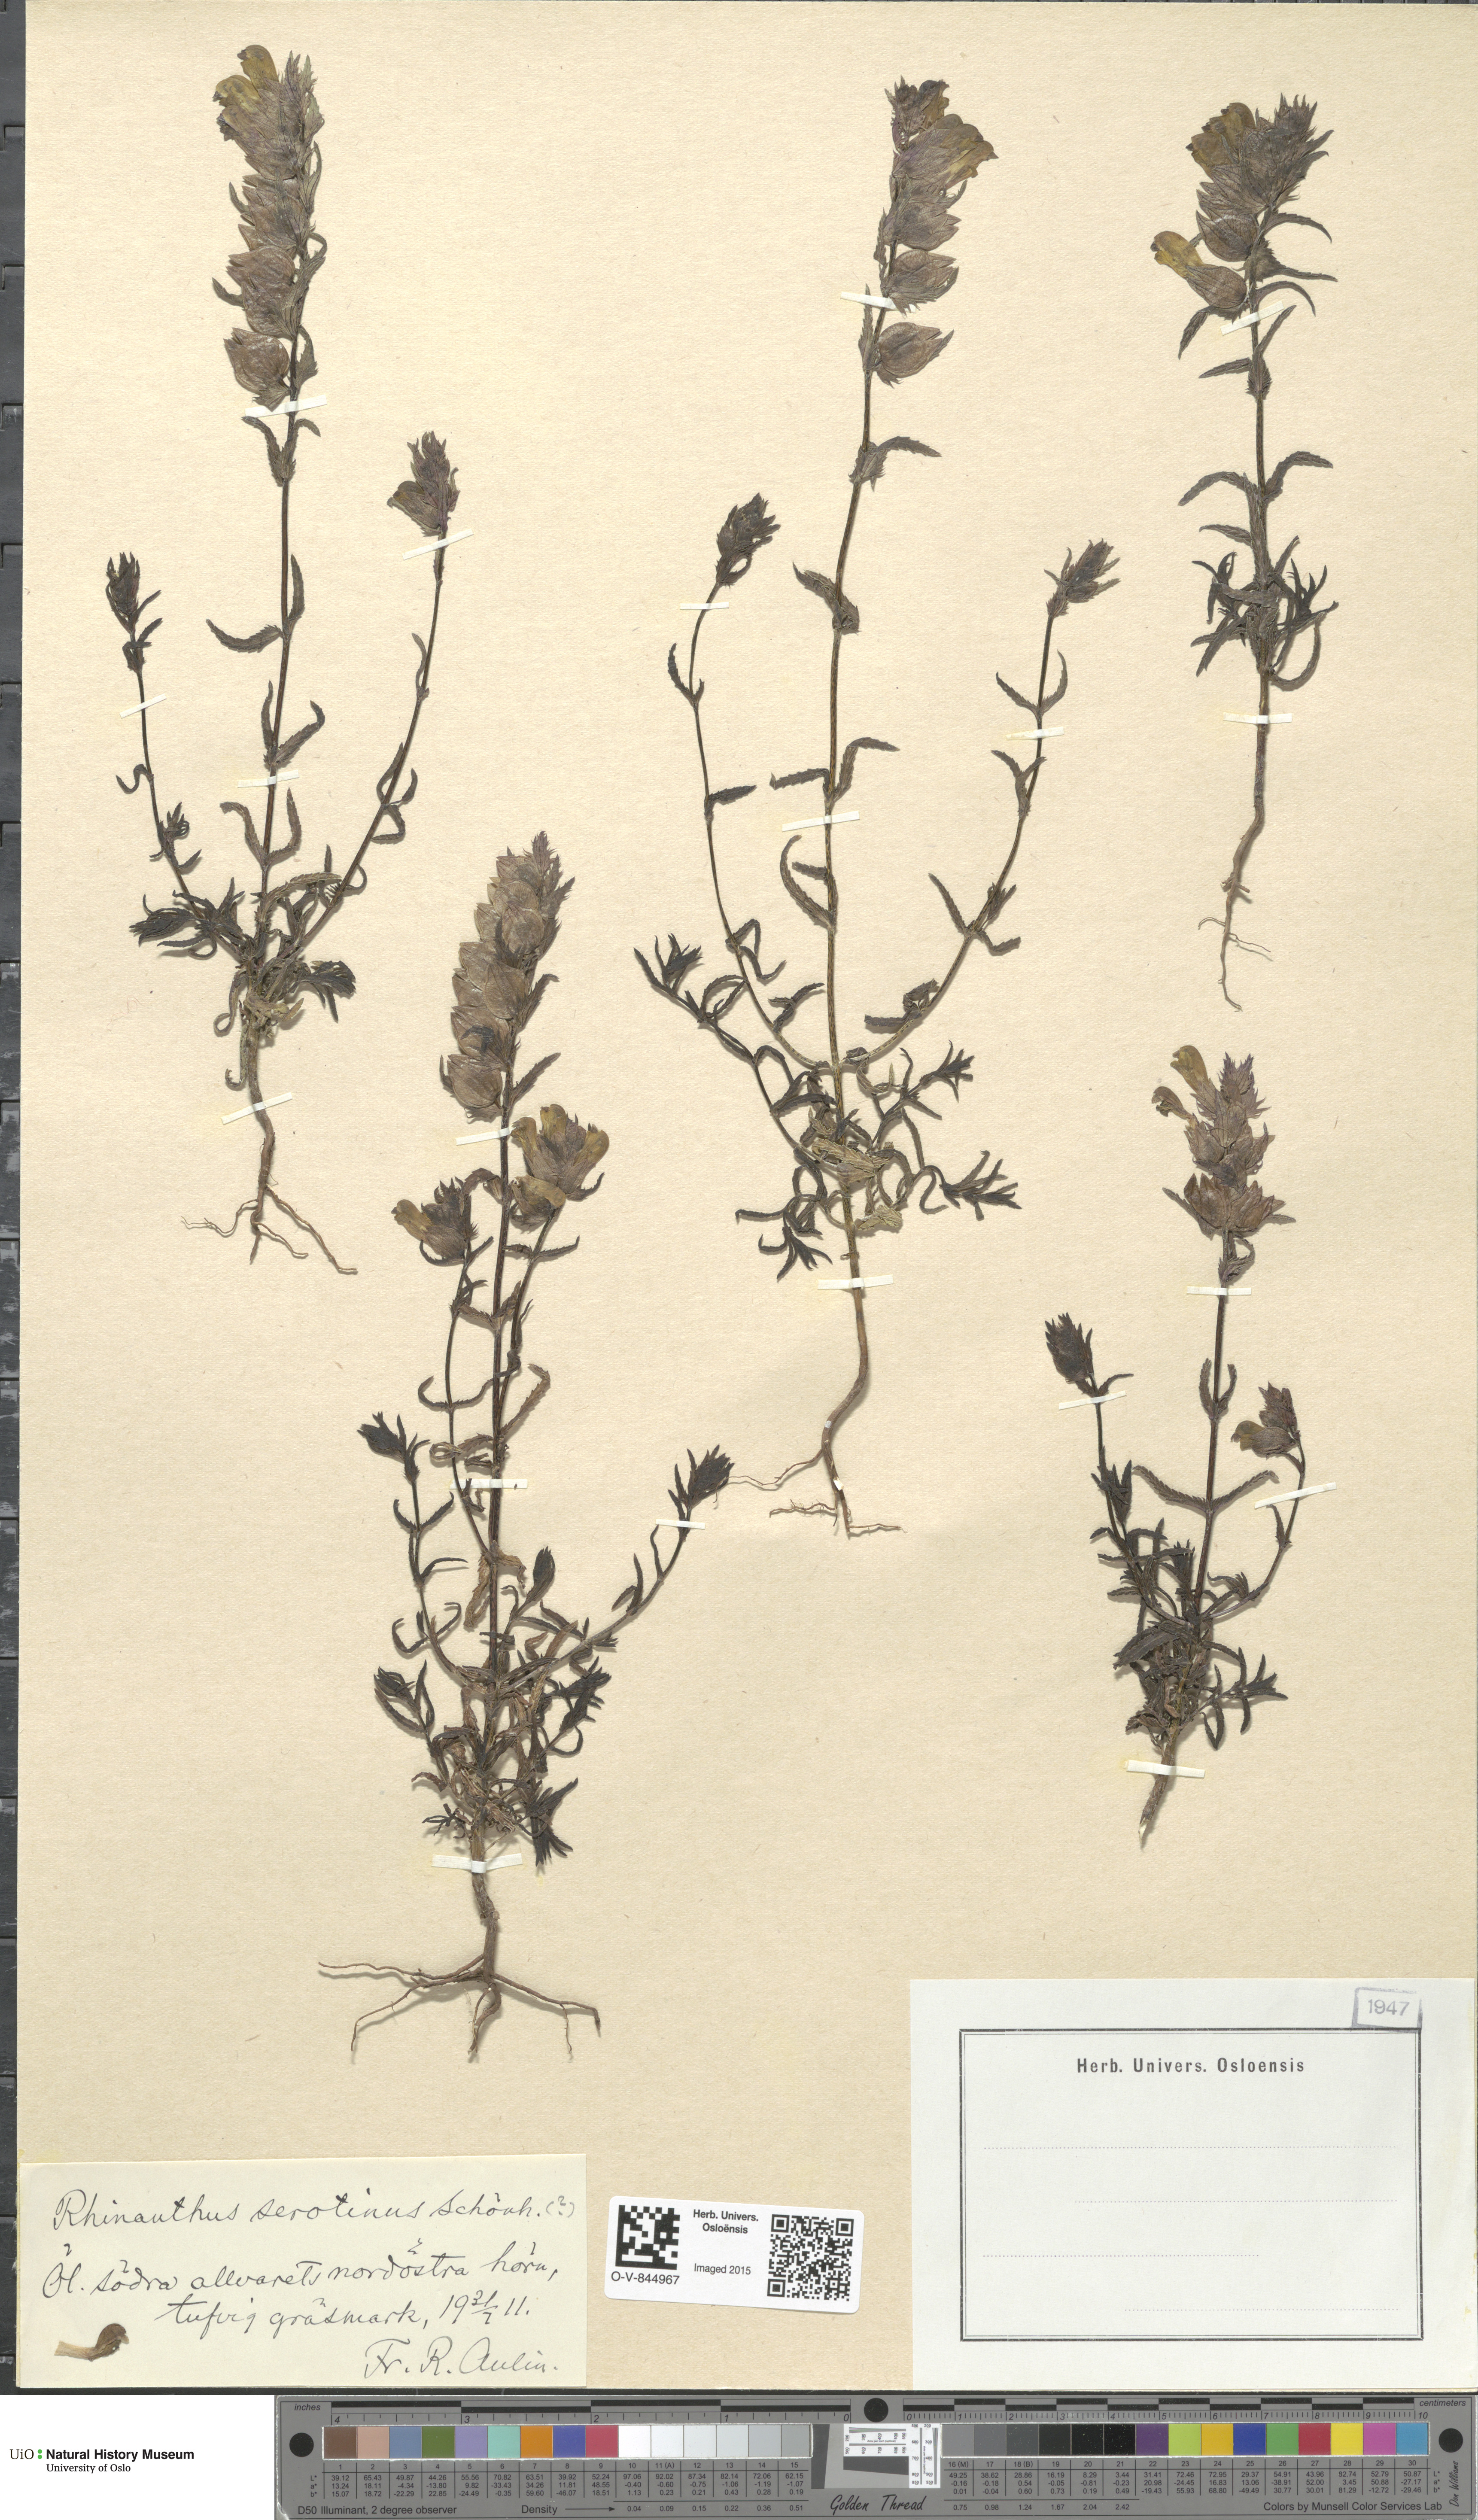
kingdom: Plantae
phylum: Tracheophyta
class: Magnoliopsida
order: Lamiales
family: Orobanchaceae
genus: Rhinanthus
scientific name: Rhinanthus
